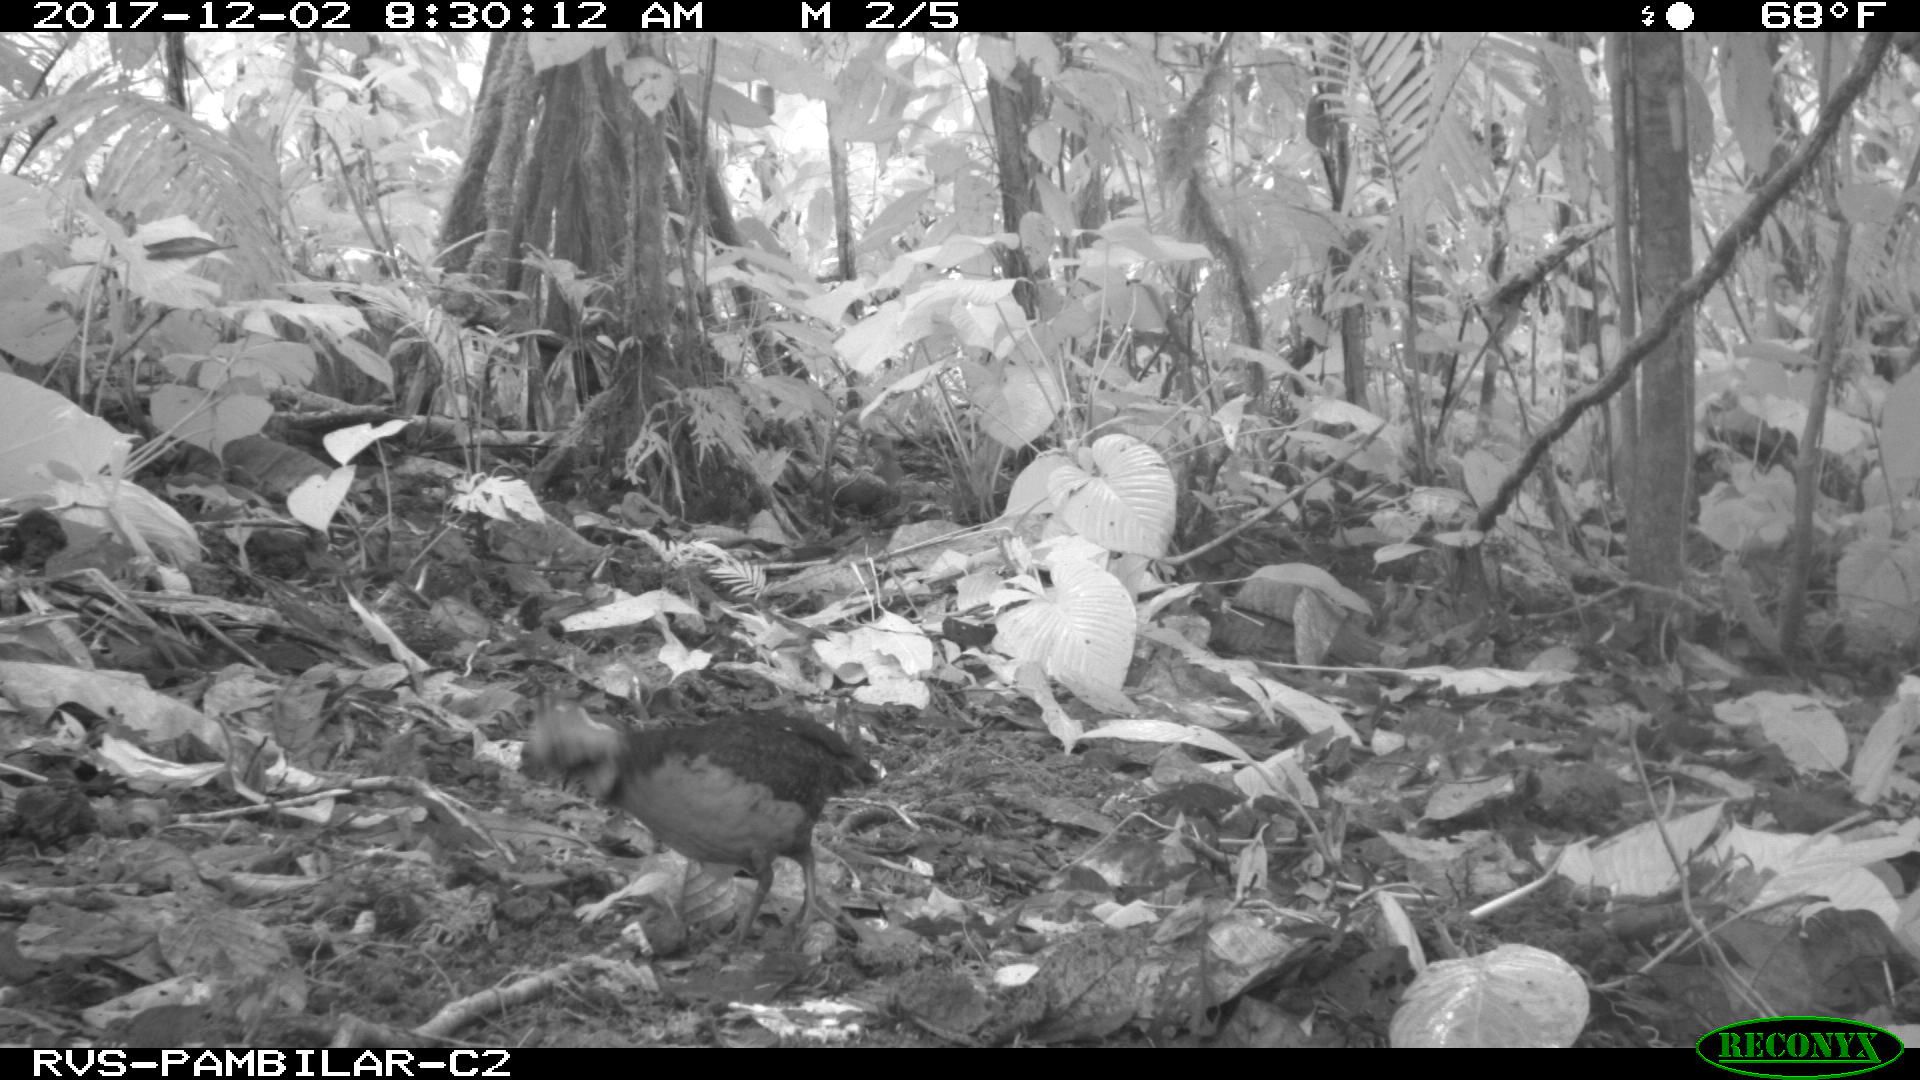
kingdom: Animalia
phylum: Chordata
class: Aves
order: Galliformes
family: Odontophoridae
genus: Odontophorus
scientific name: Odontophorus erythrops
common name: Rufous-fronted wood quail
